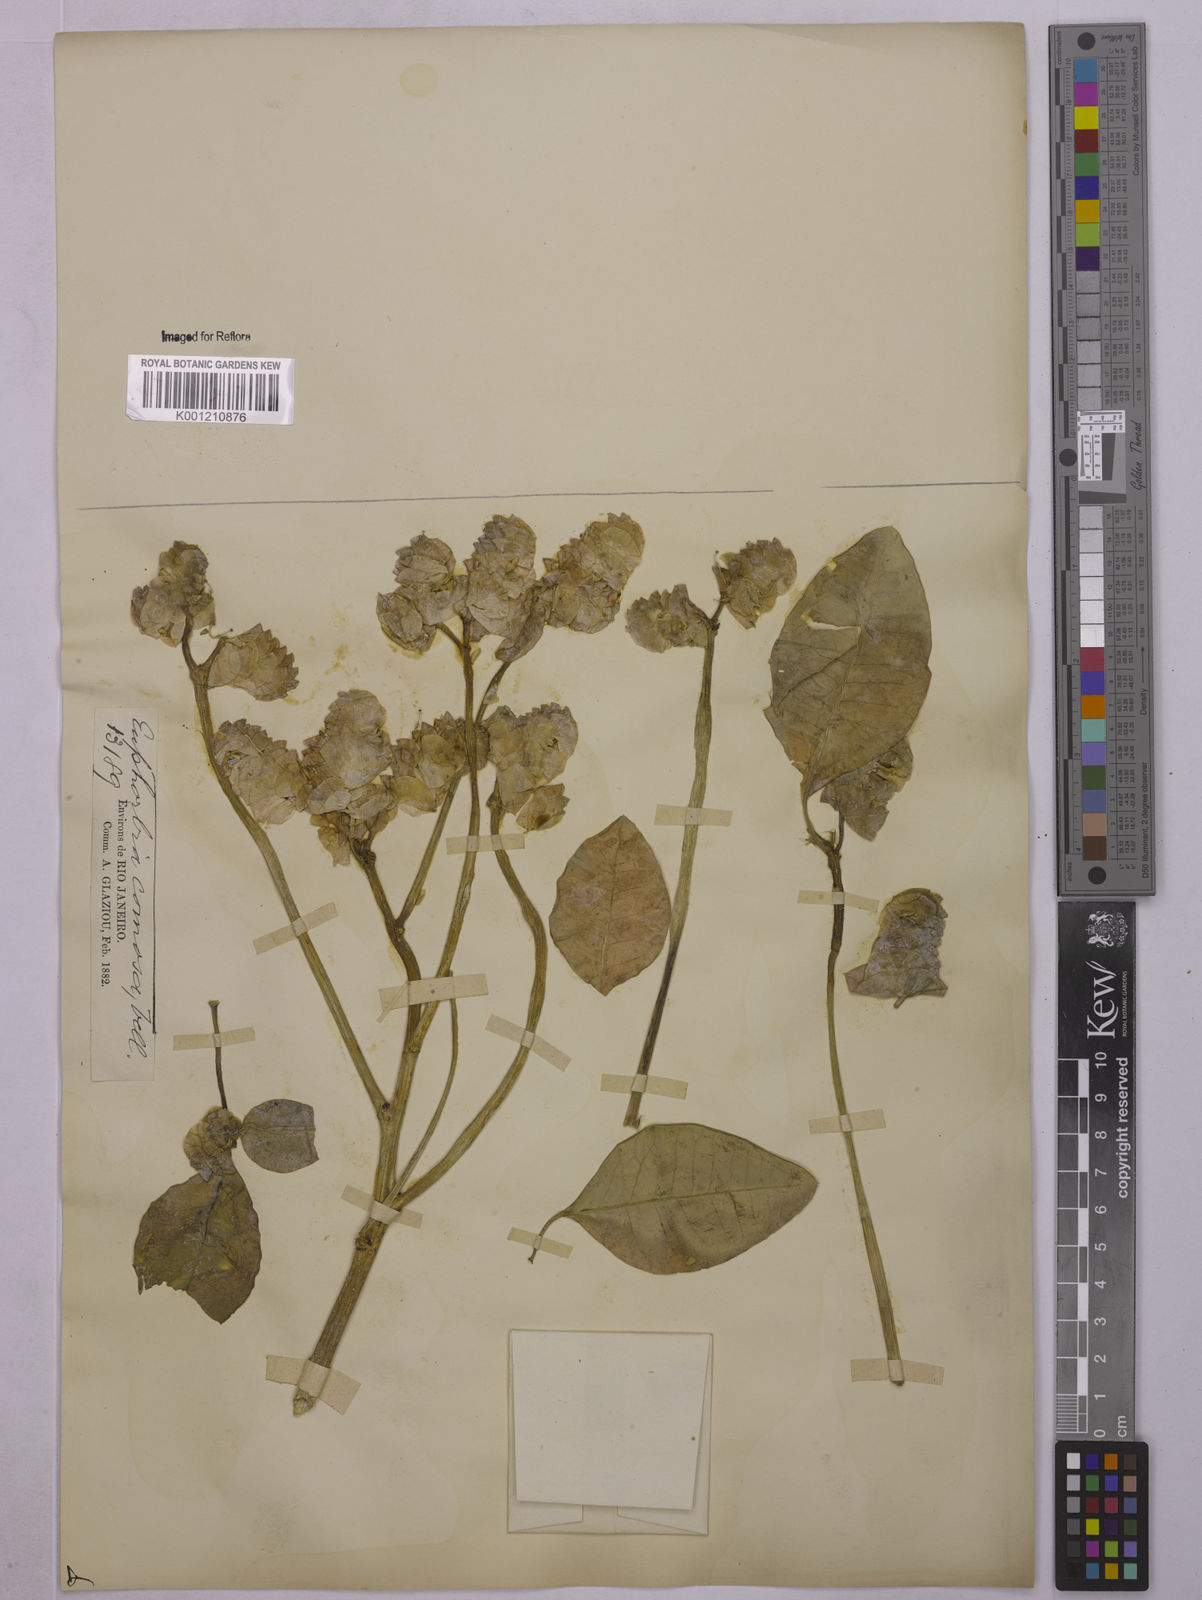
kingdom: Plantae
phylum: Tracheophyta
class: Magnoliopsida
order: Malpighiales
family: Euphorbiaceae
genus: Euphorbia
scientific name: Euphorbia comosa
